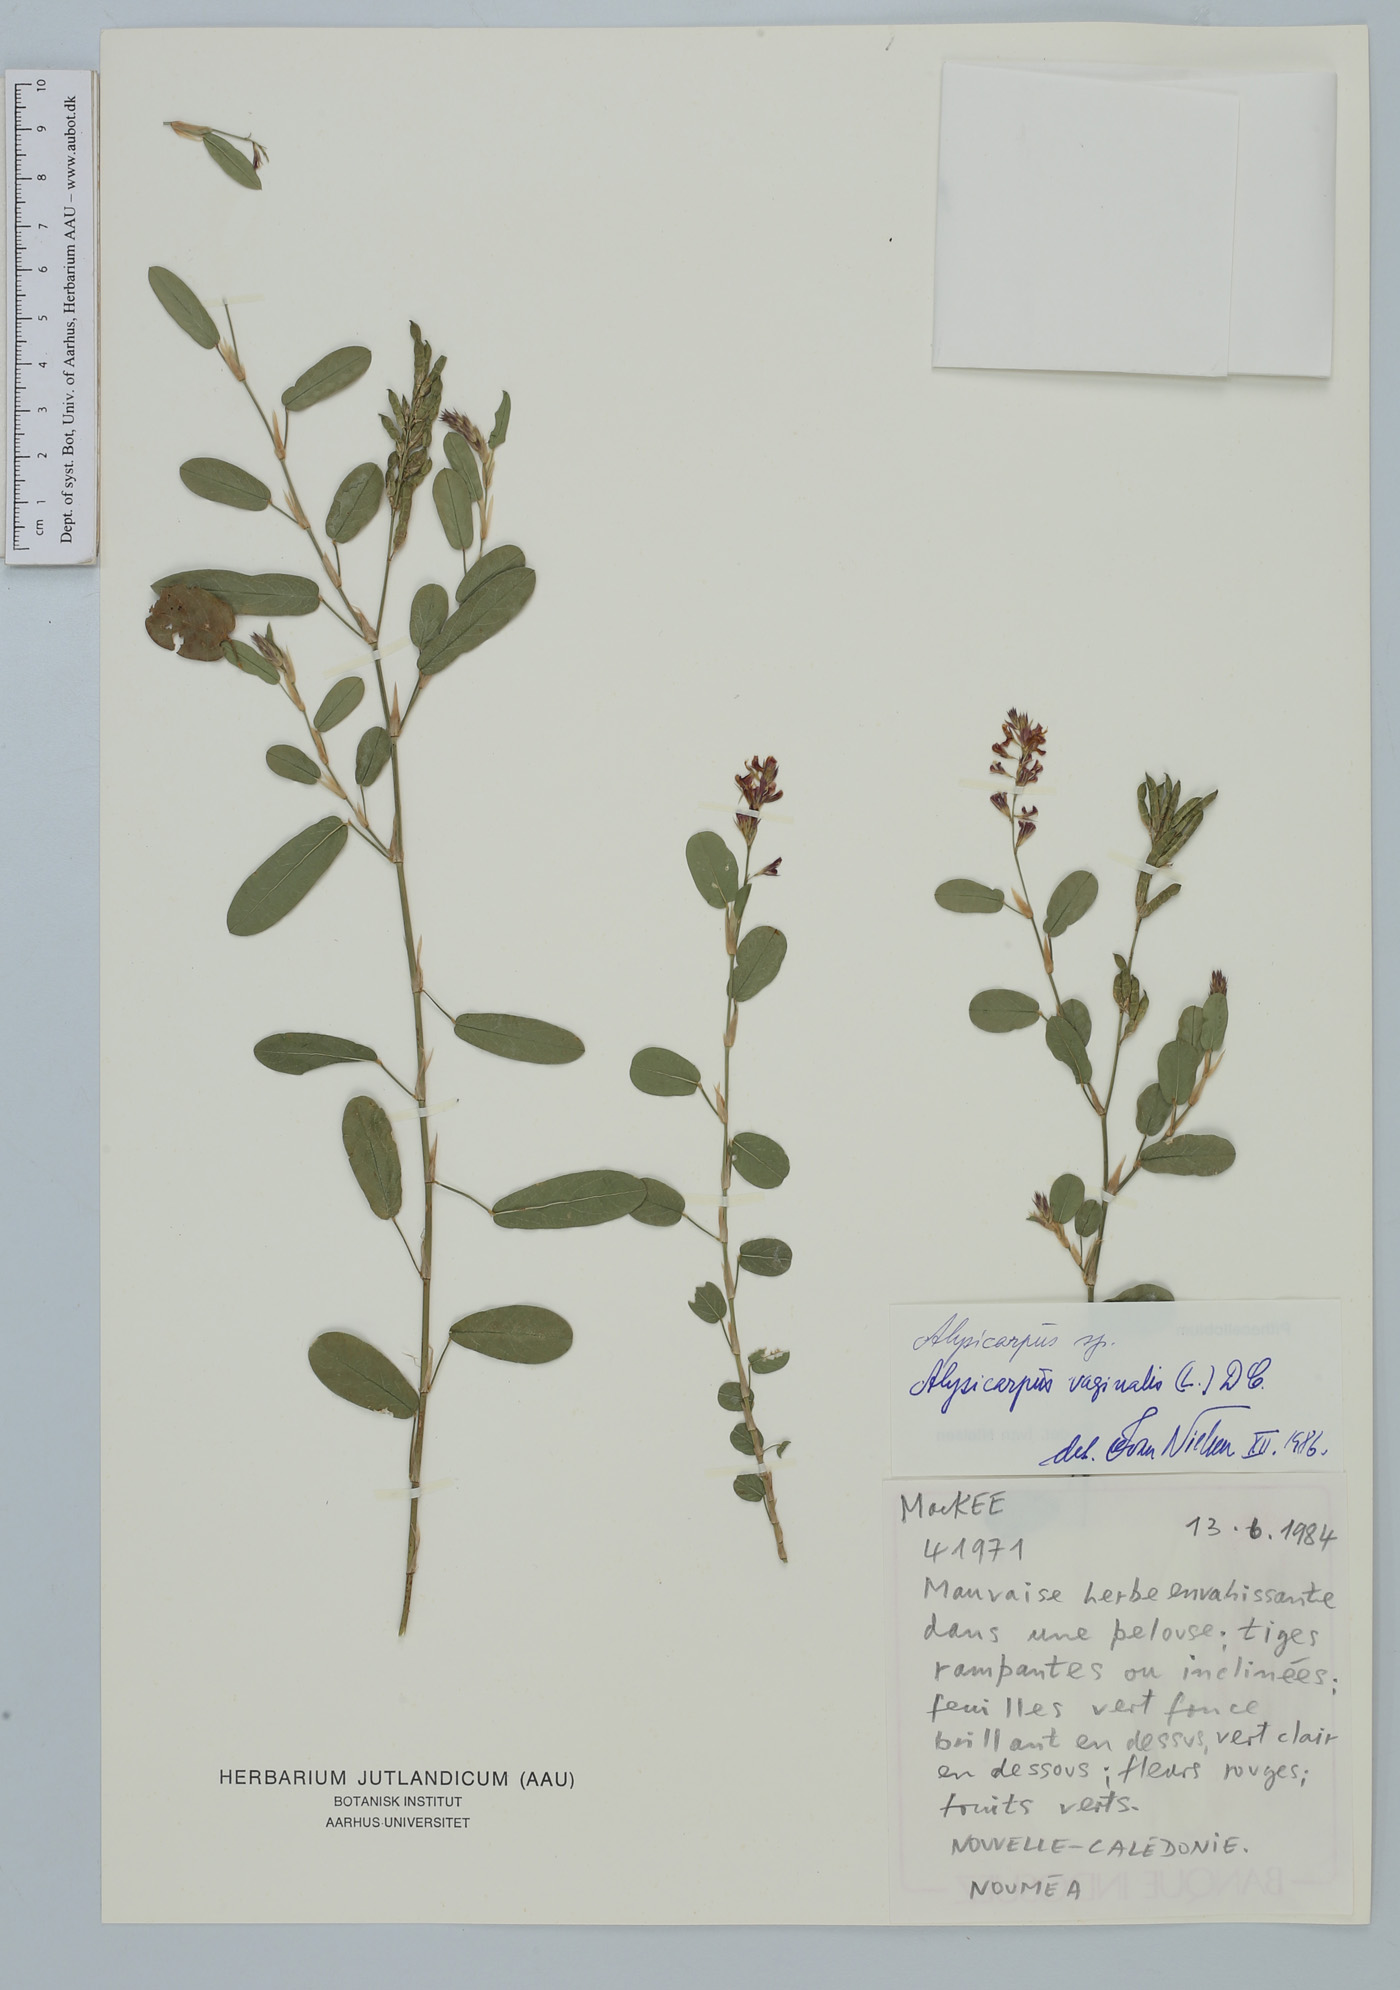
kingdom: Plantae
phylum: Tracheophyta
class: Magnoliopsida
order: Fabales
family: Fabaceae
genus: Alysicarpus
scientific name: Alysicarpus vaginalis
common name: White moneywort
